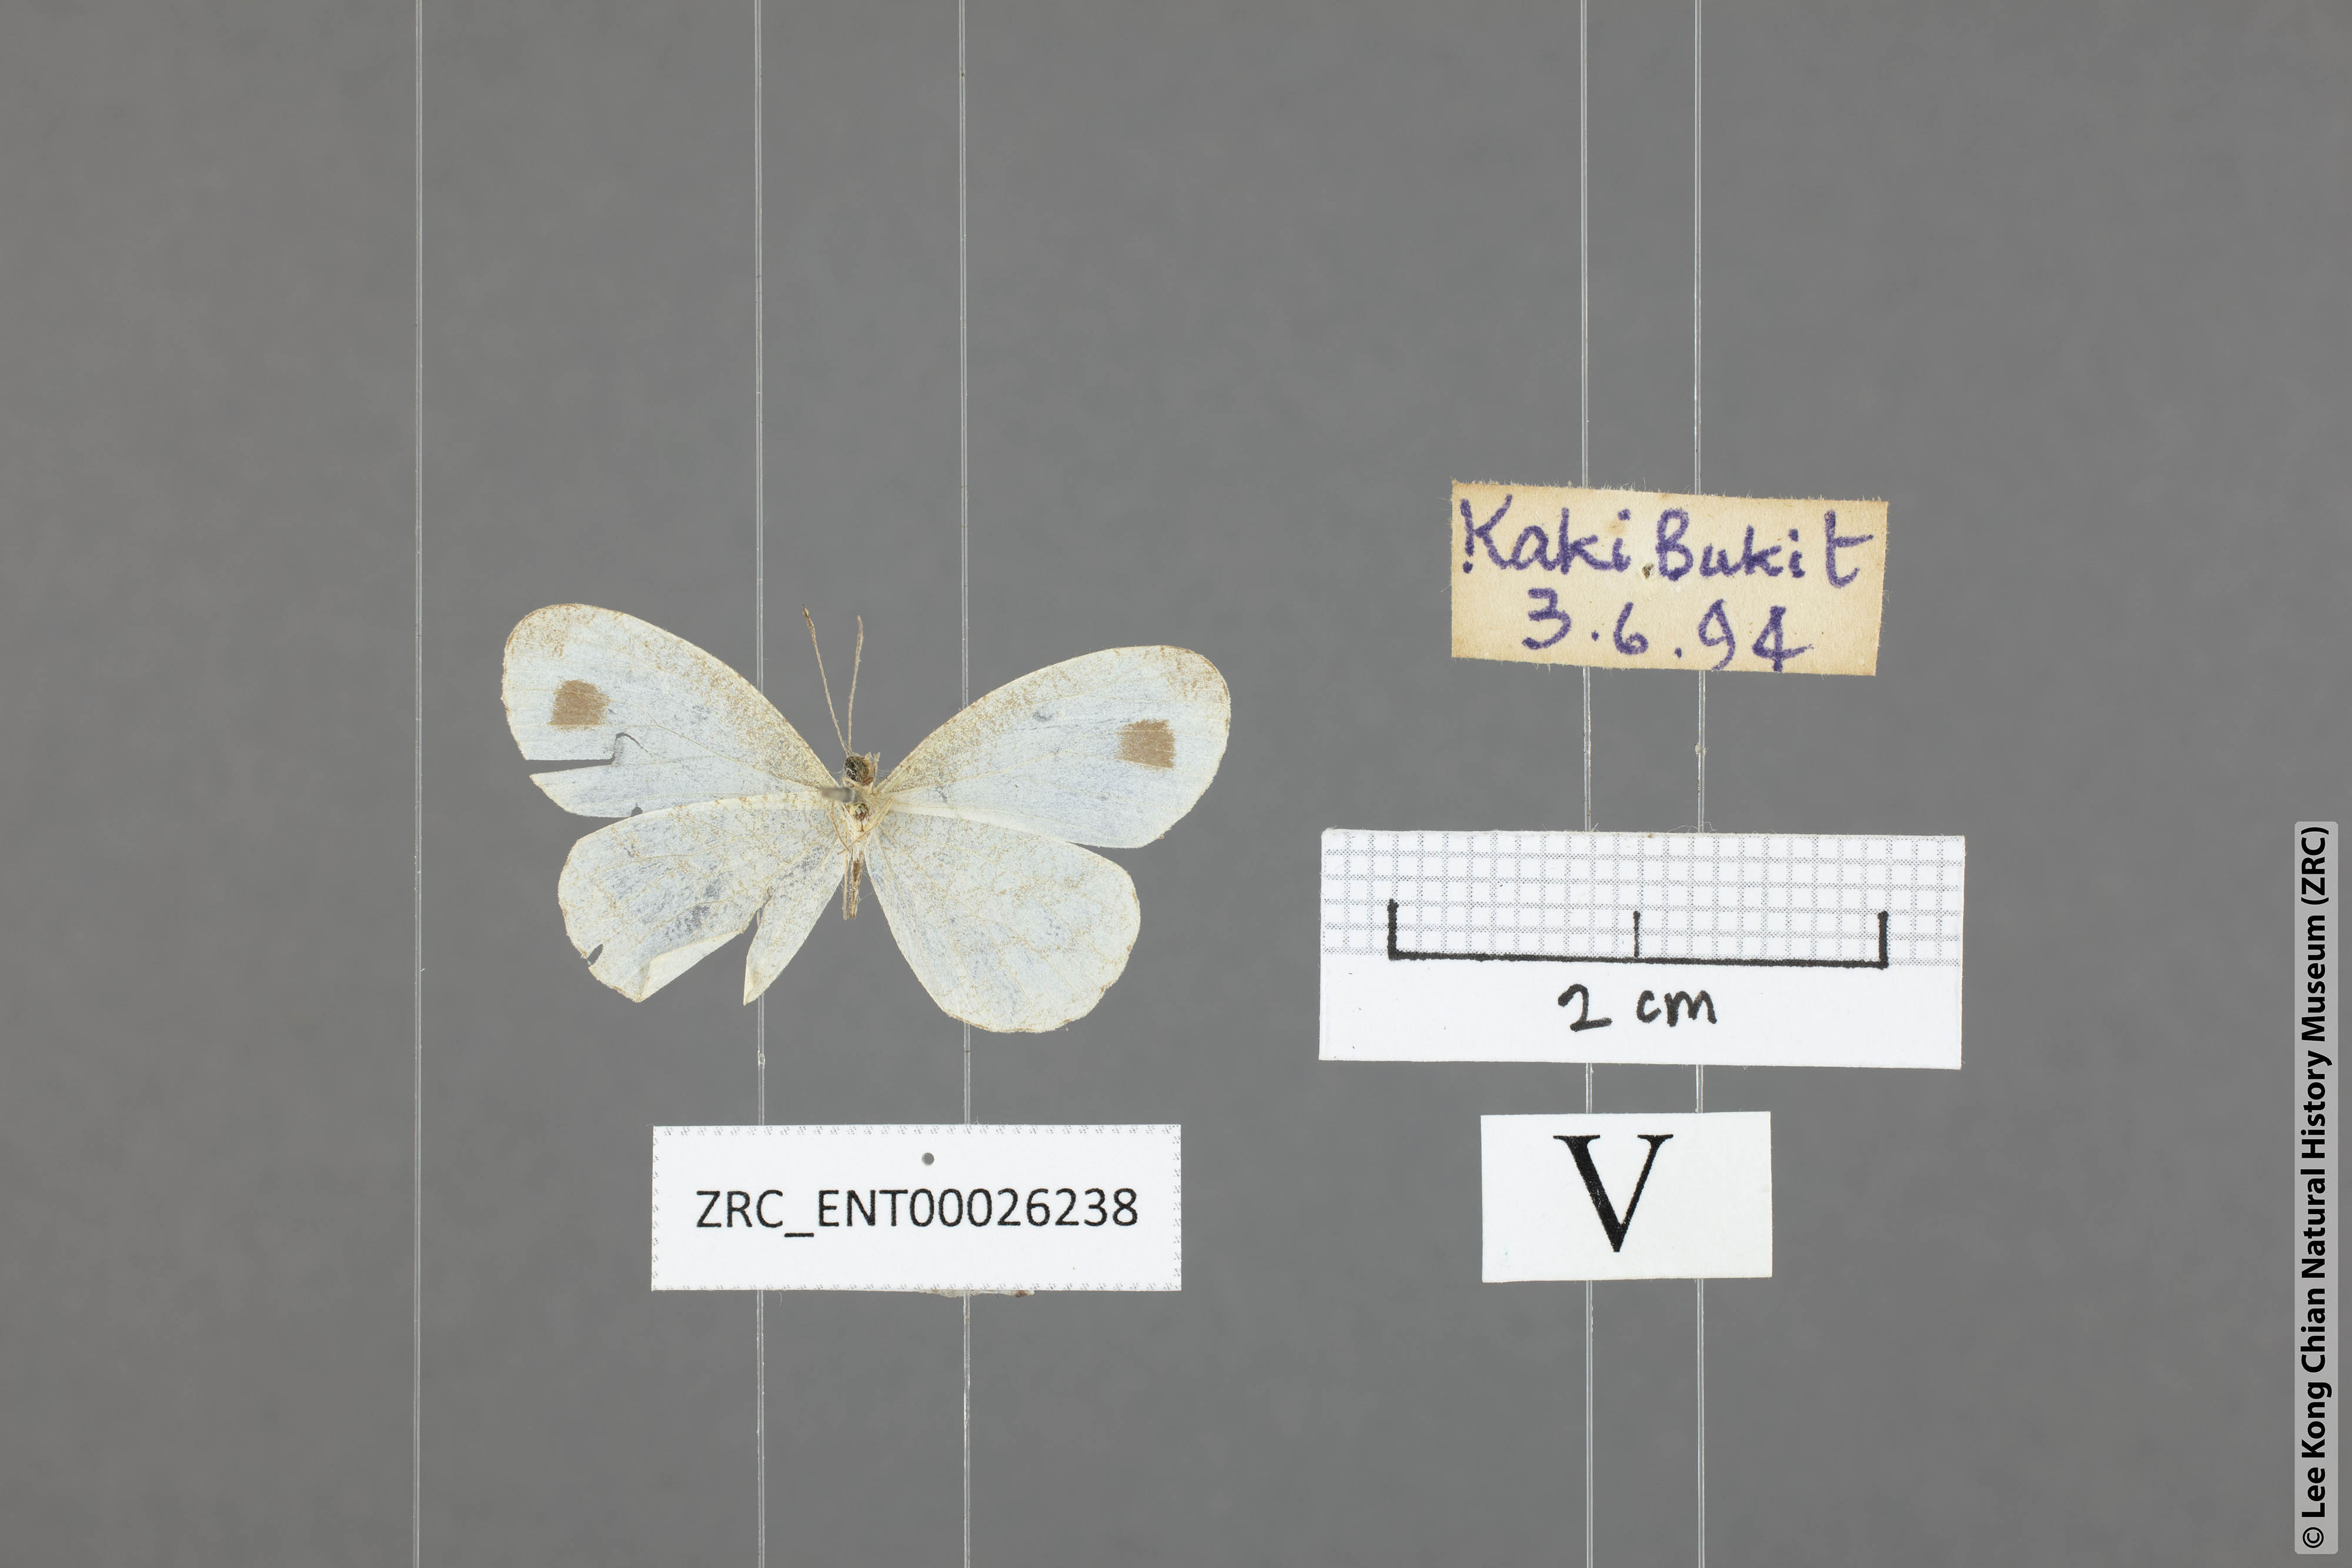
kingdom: Animalia
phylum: Arthropoda
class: Insecta
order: Lepidoptera
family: Pieridae
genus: Leptosia
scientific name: Leptosia nina
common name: Psyche
